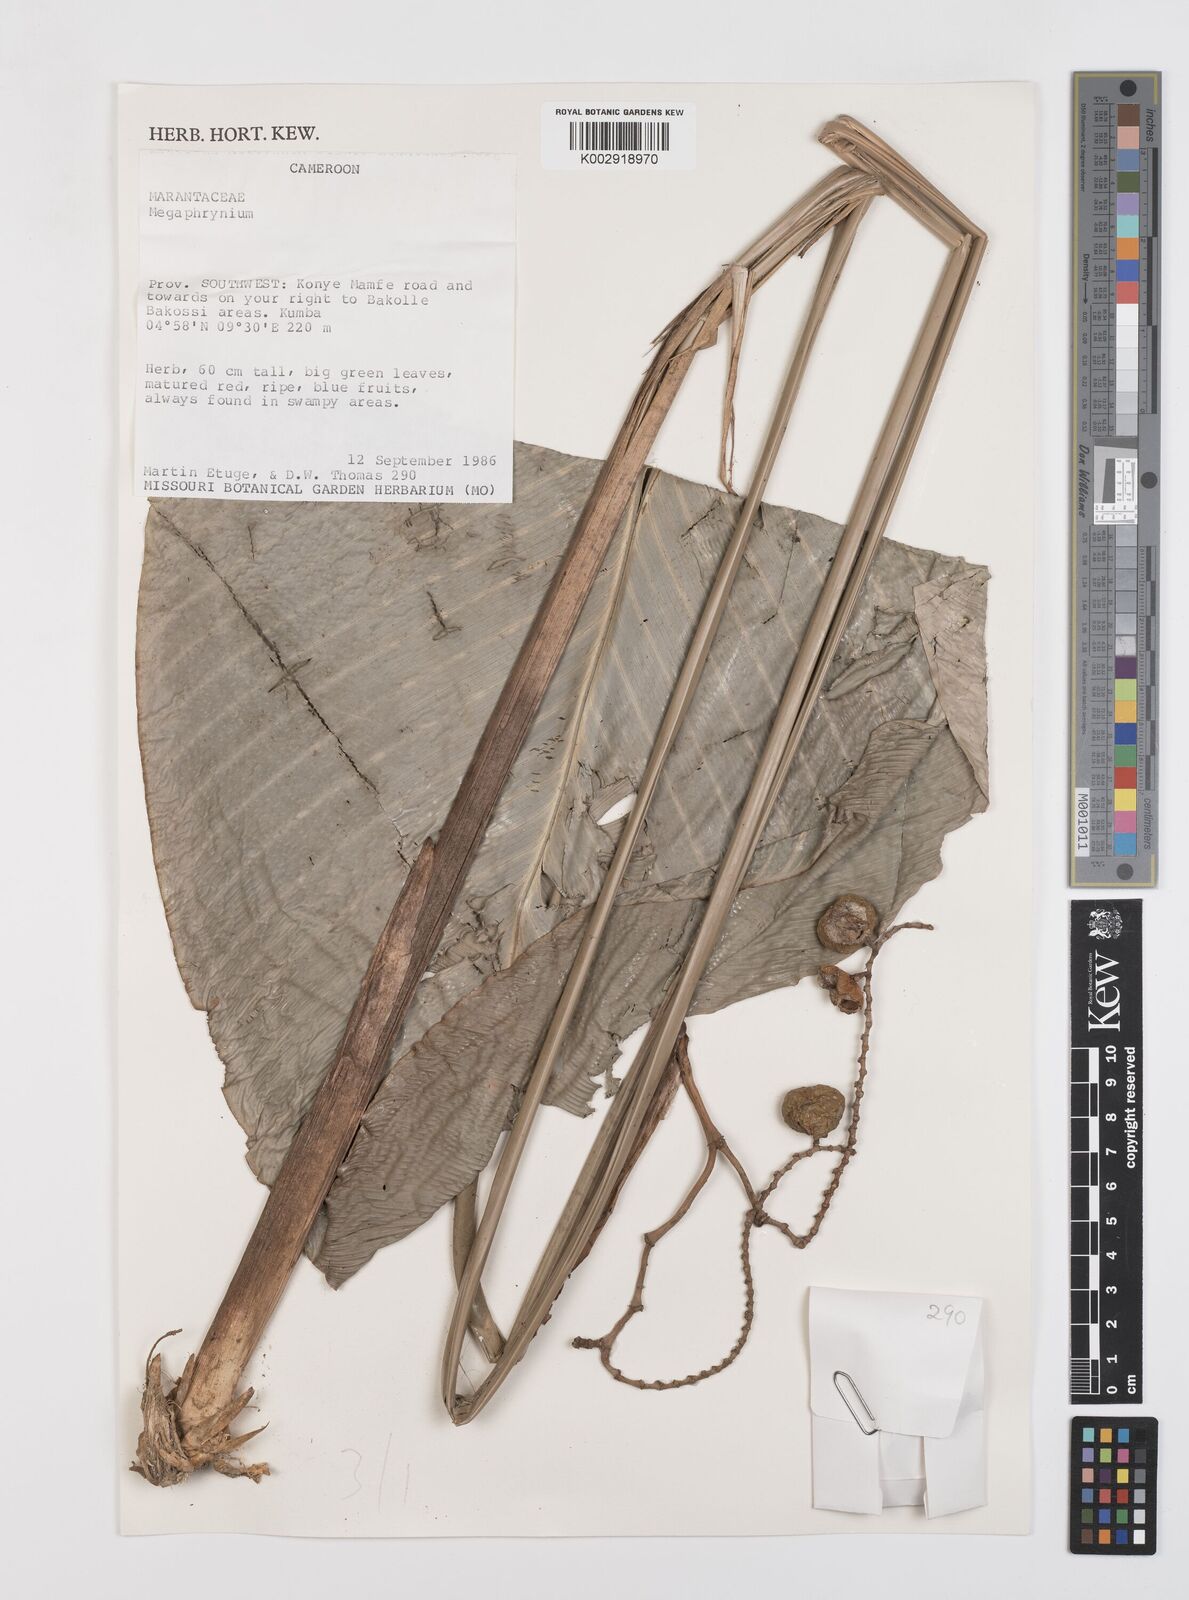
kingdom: Plantae
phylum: Tracheophyta
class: Liliopsida
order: Zingiberales
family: Marantaceae
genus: Megaphrynium
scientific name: Megaphrynium
